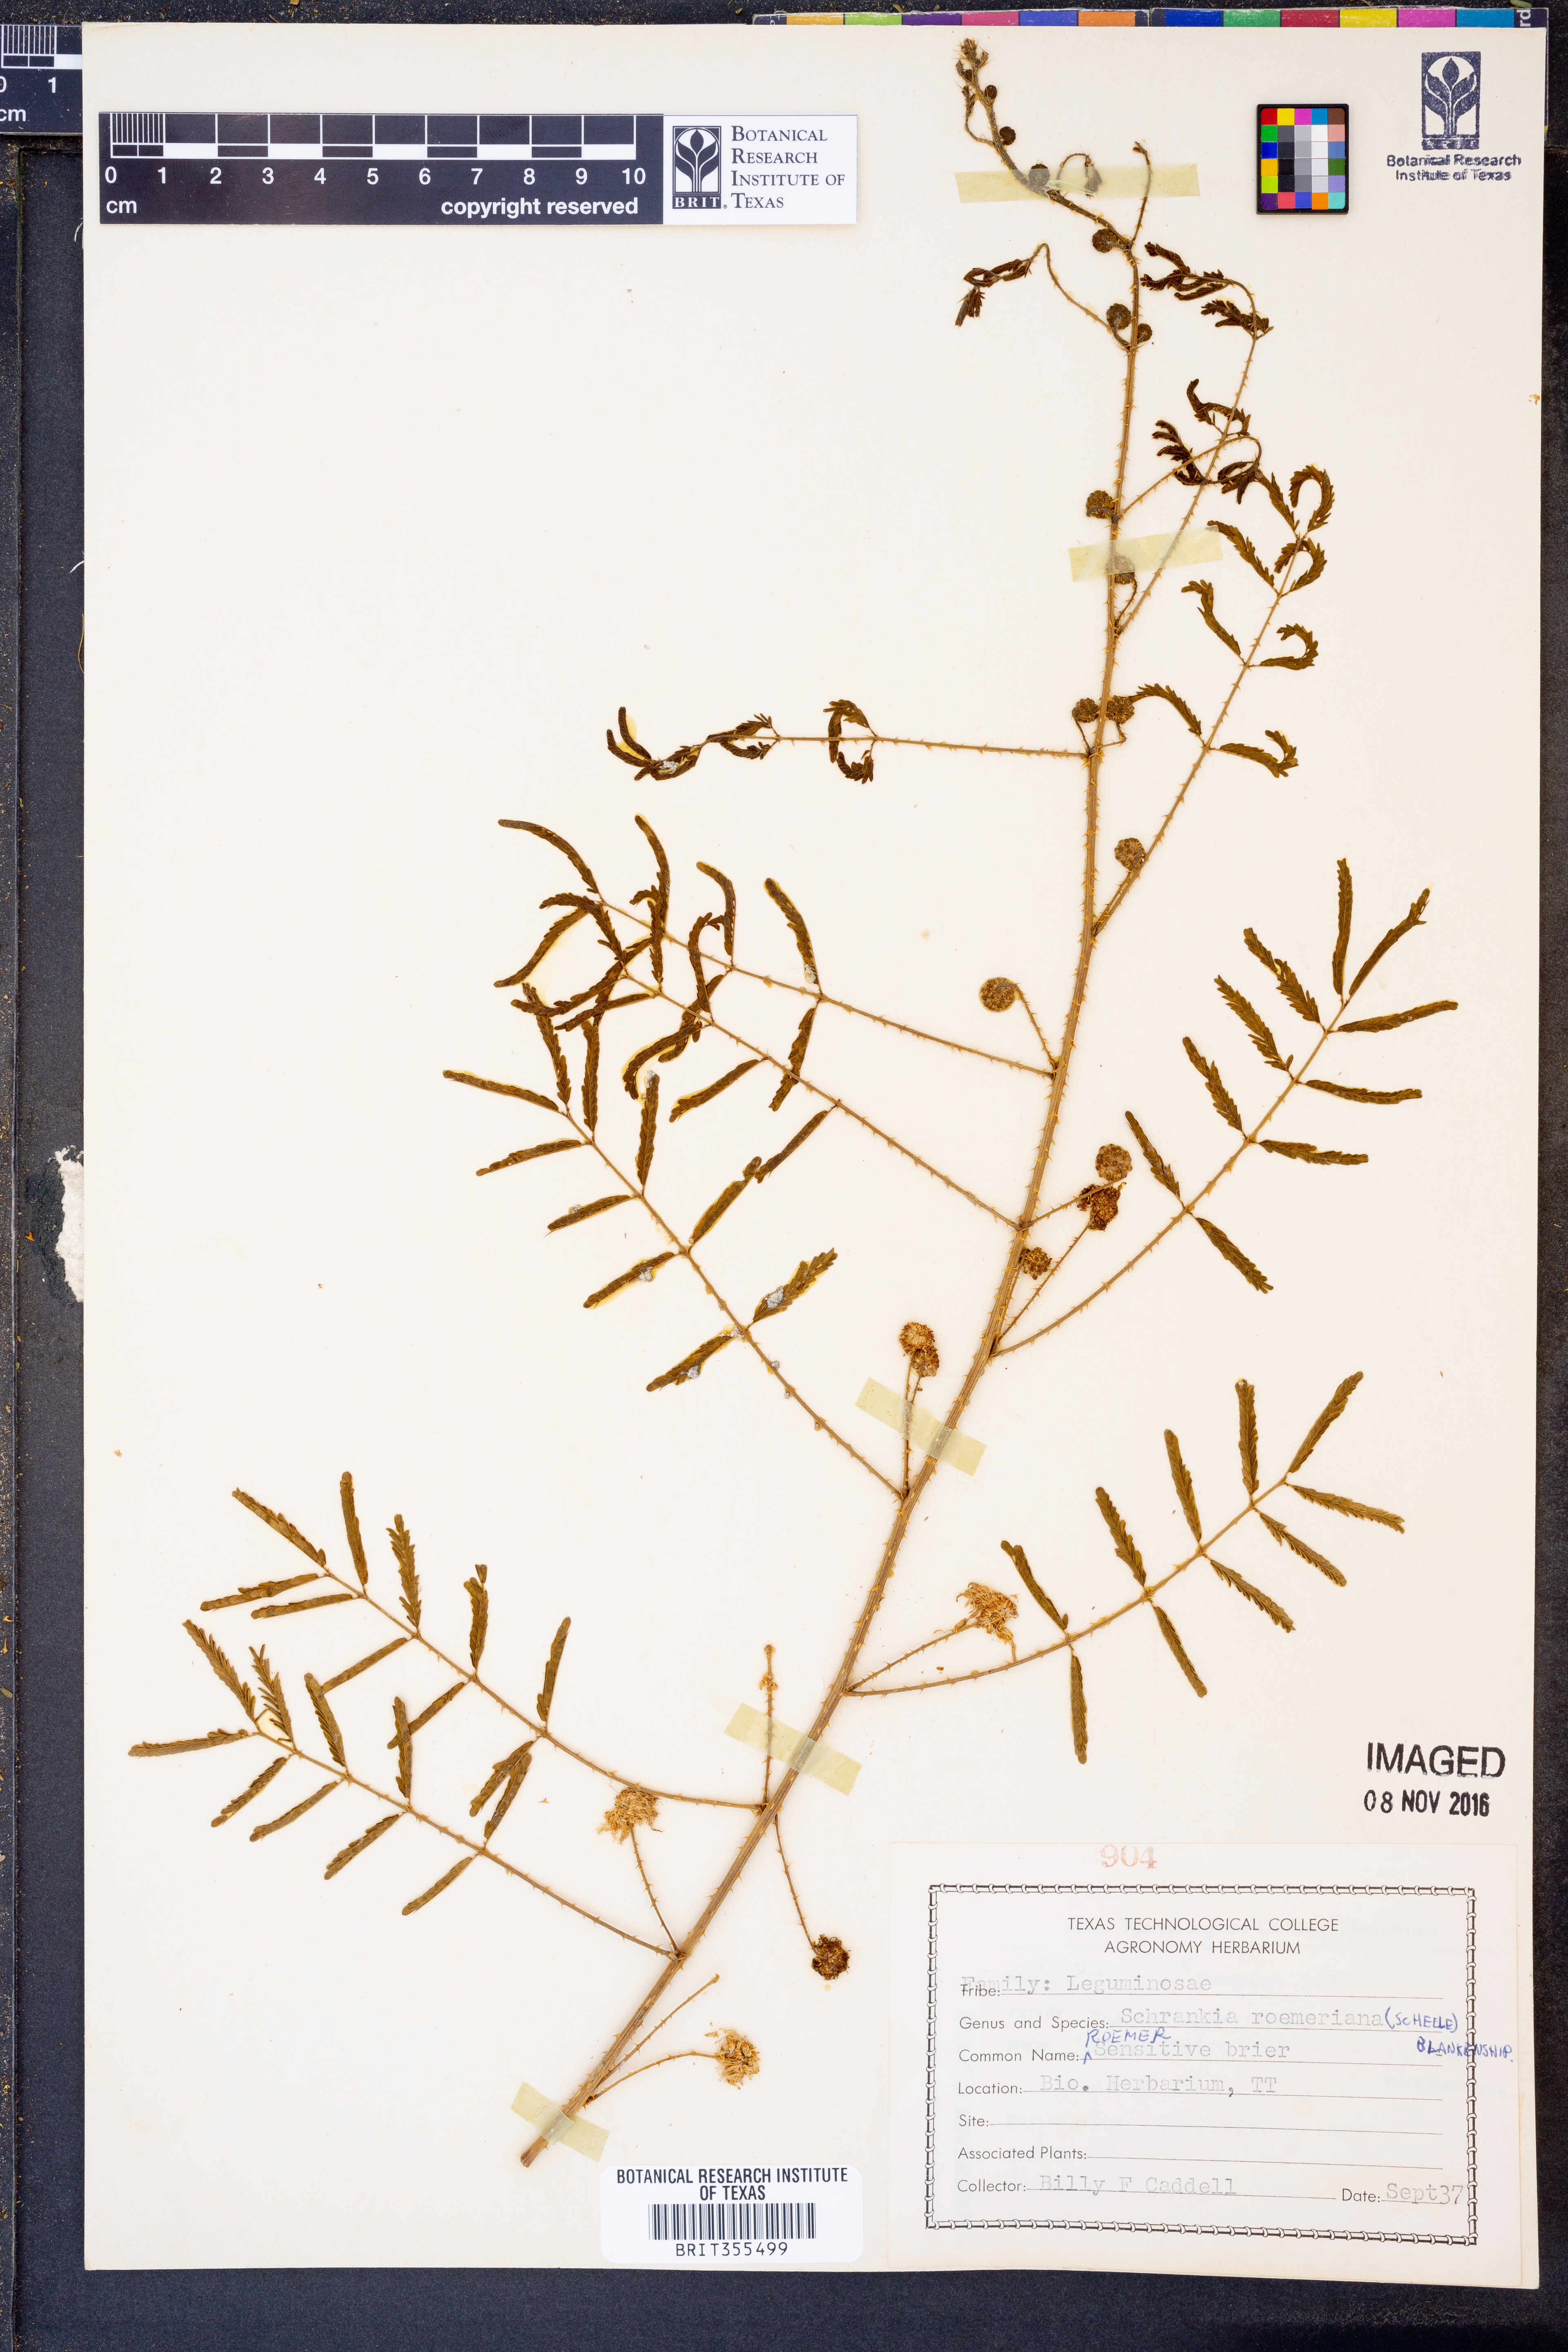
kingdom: Plantae
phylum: Tracheophyta
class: Magnoliopsida
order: Fabales
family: Fabaceae
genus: Mimosa
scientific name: Mimosa quadrivalvis
